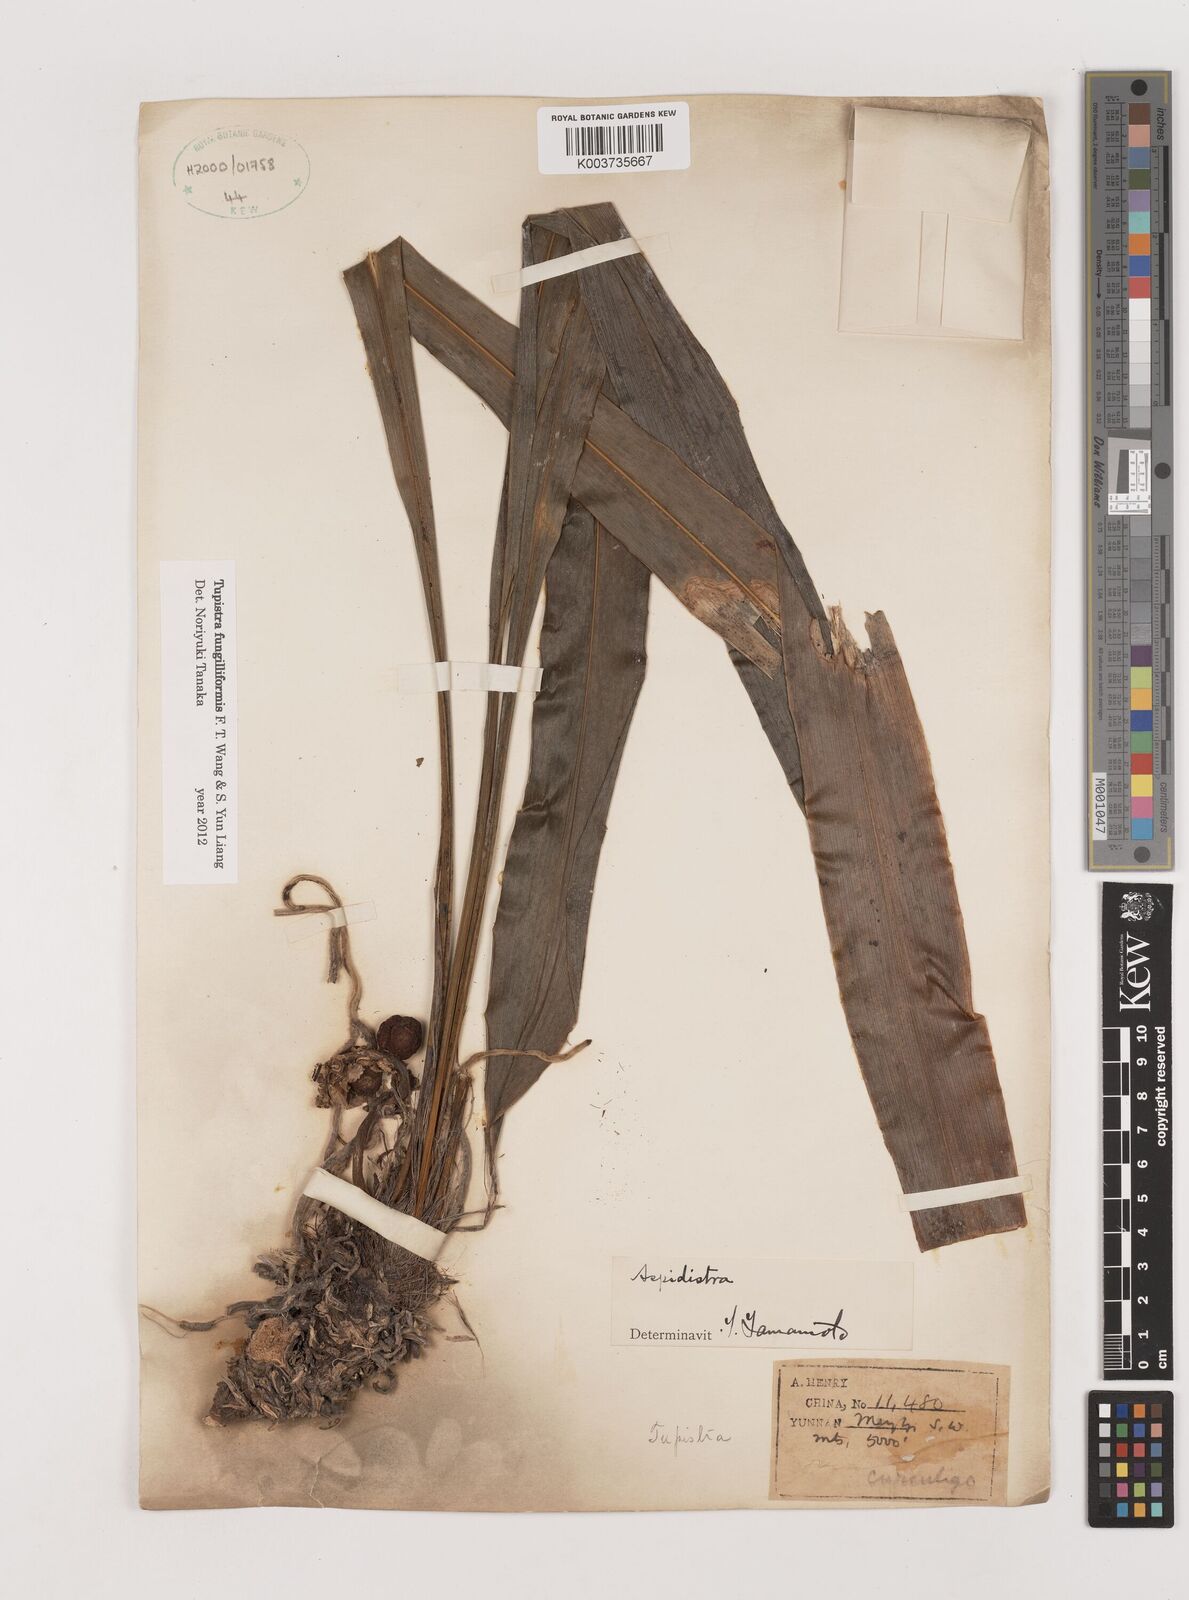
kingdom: Plantae
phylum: Tracheophyta
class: Liliopsida
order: Asparagales
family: Asparagaceae
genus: Tupistra
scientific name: Tupistra fungilliformis
